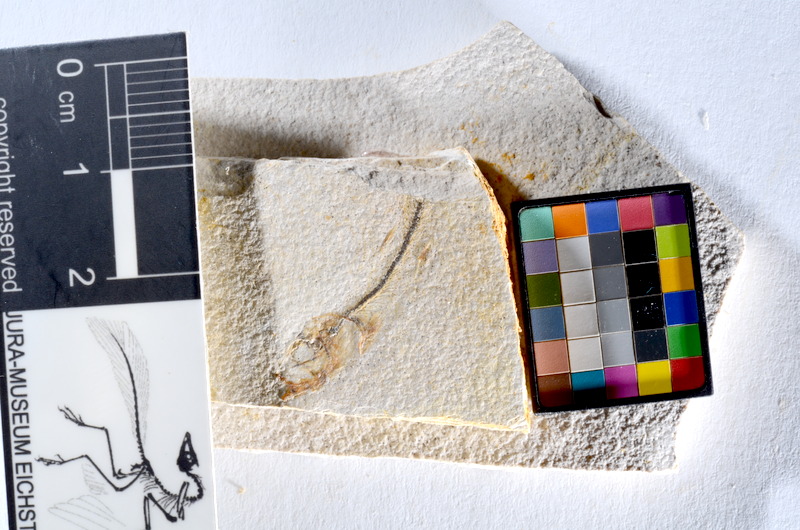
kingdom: Animalia
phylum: Chordata
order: Salmoniformes
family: Orthogonikleithridae
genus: Orthogonikleithrus
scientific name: Orthogonikleithrus hoelli
